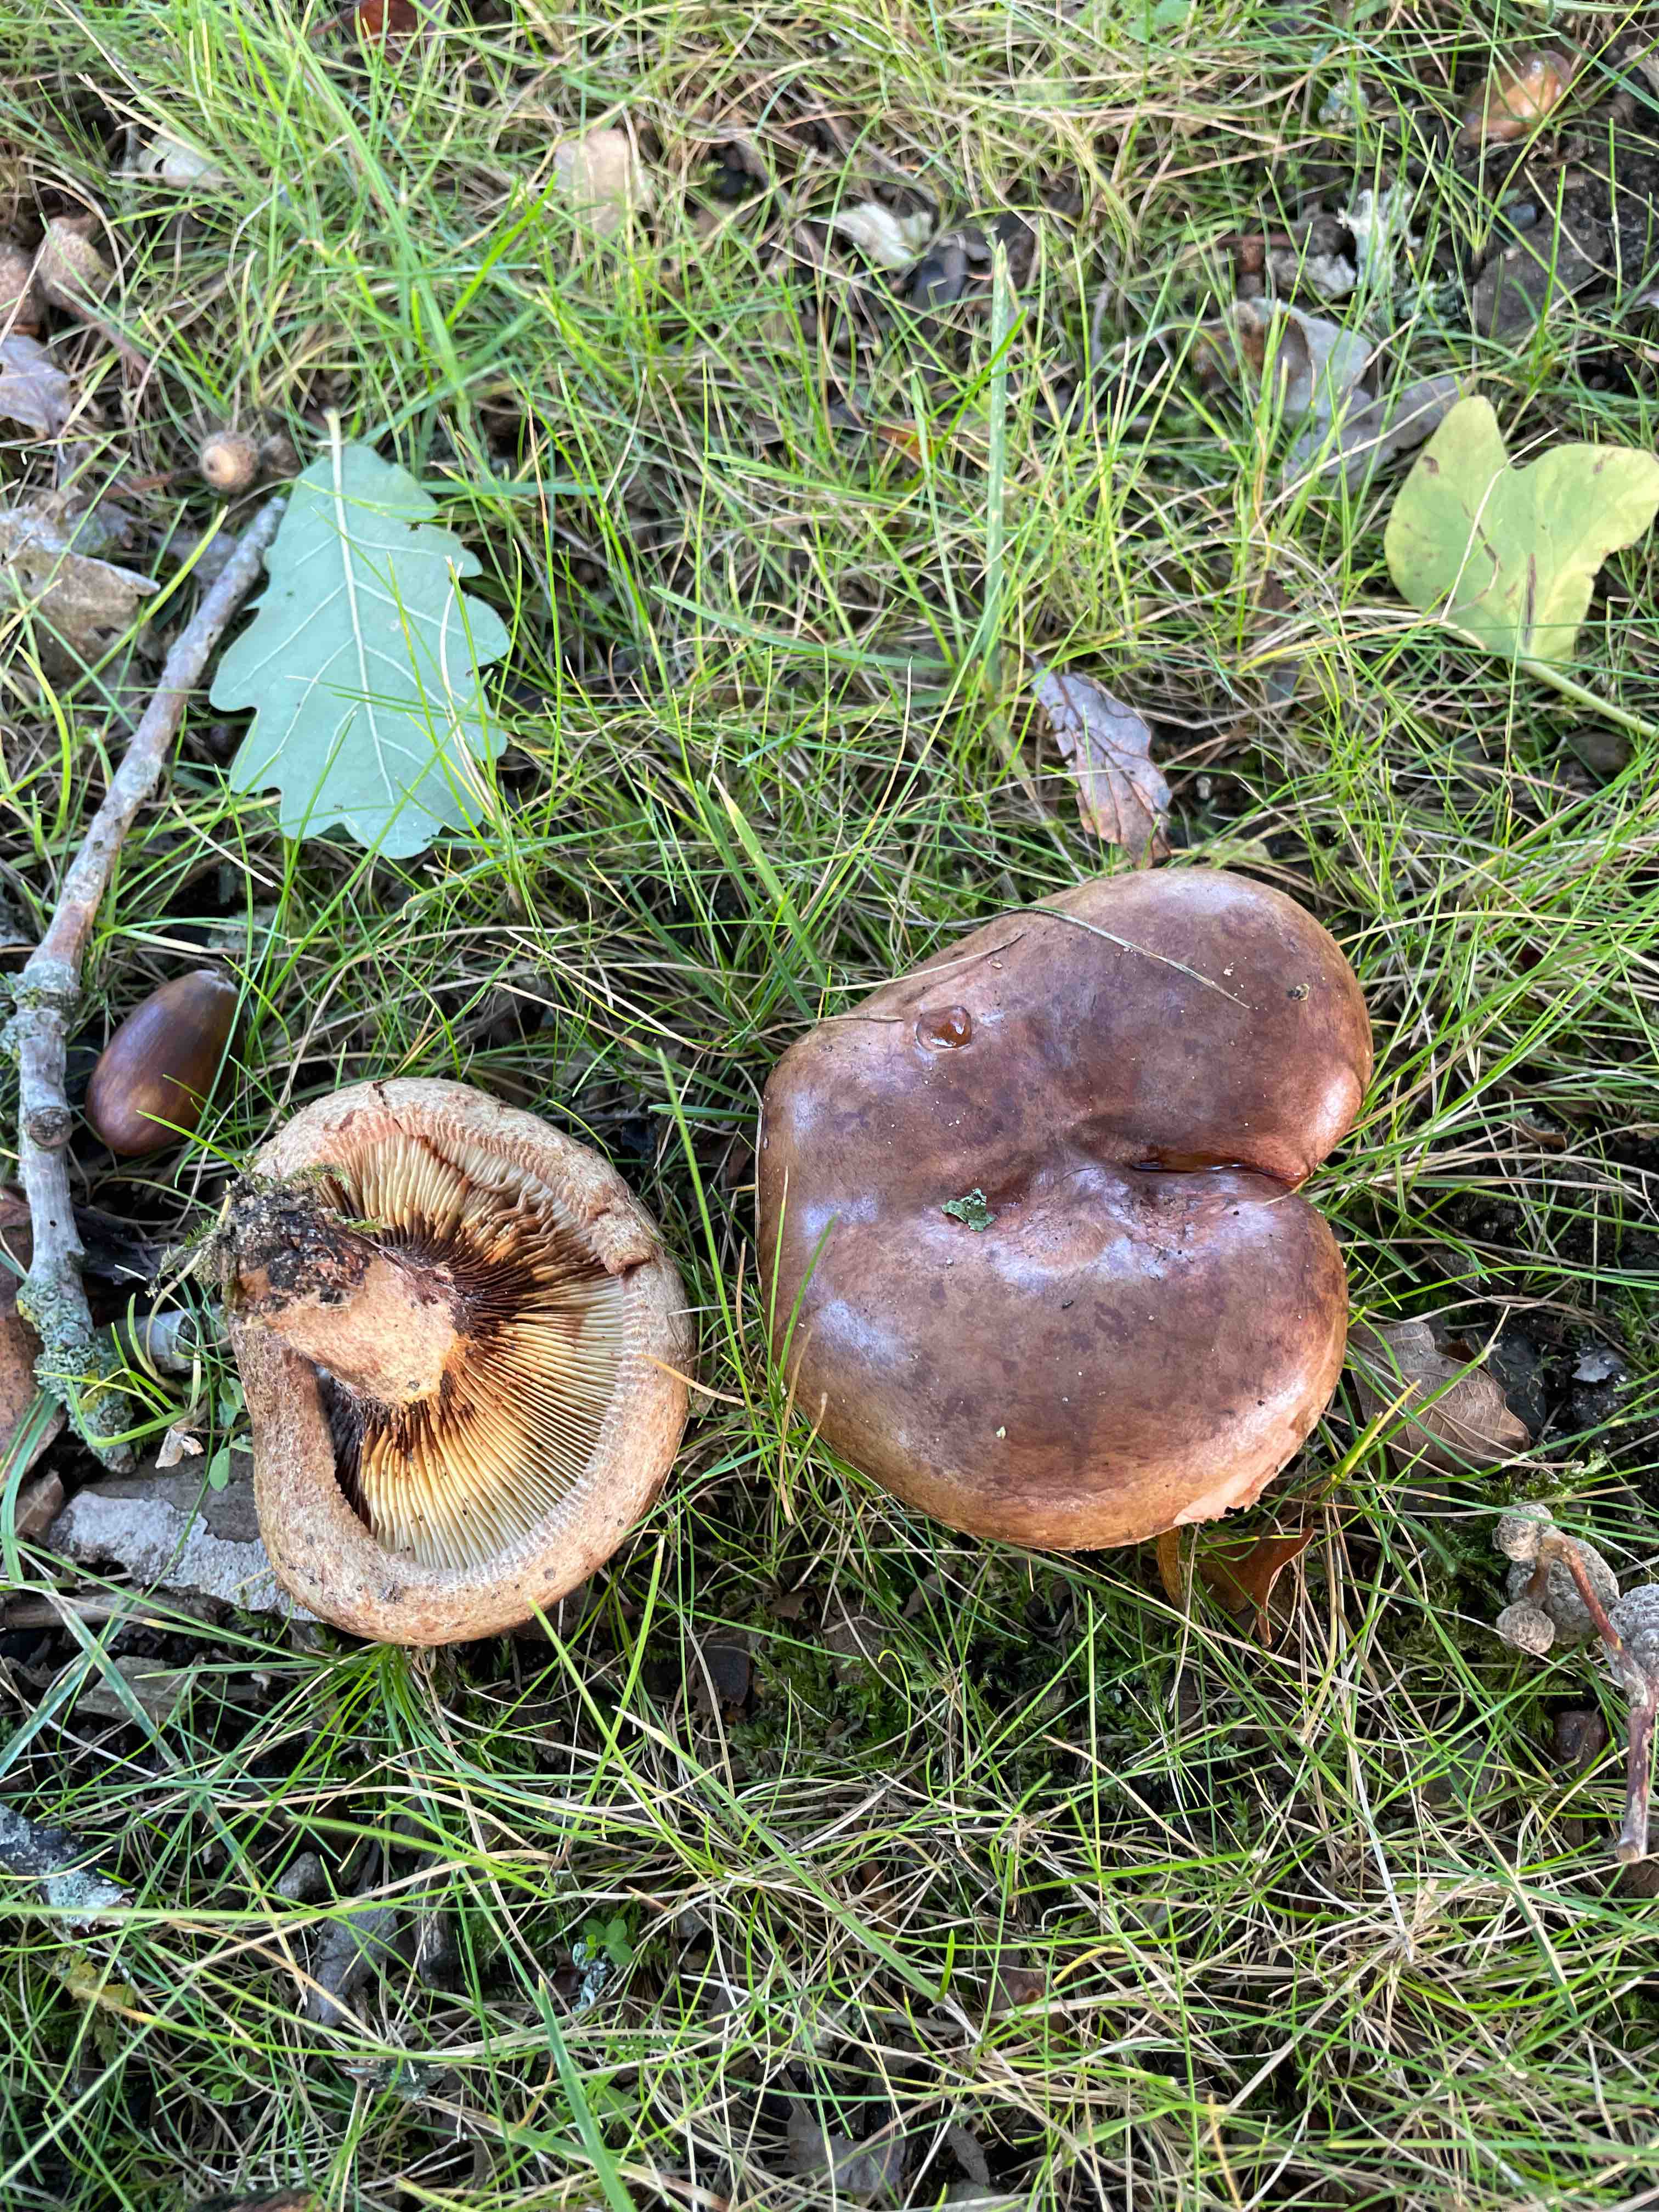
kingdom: Fungi
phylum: Basidiomycota
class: Agaricomycetes
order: Boletales
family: Paxillaceae
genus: Paxillus
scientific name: Paxillus involutus
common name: almindelig netbladhat
